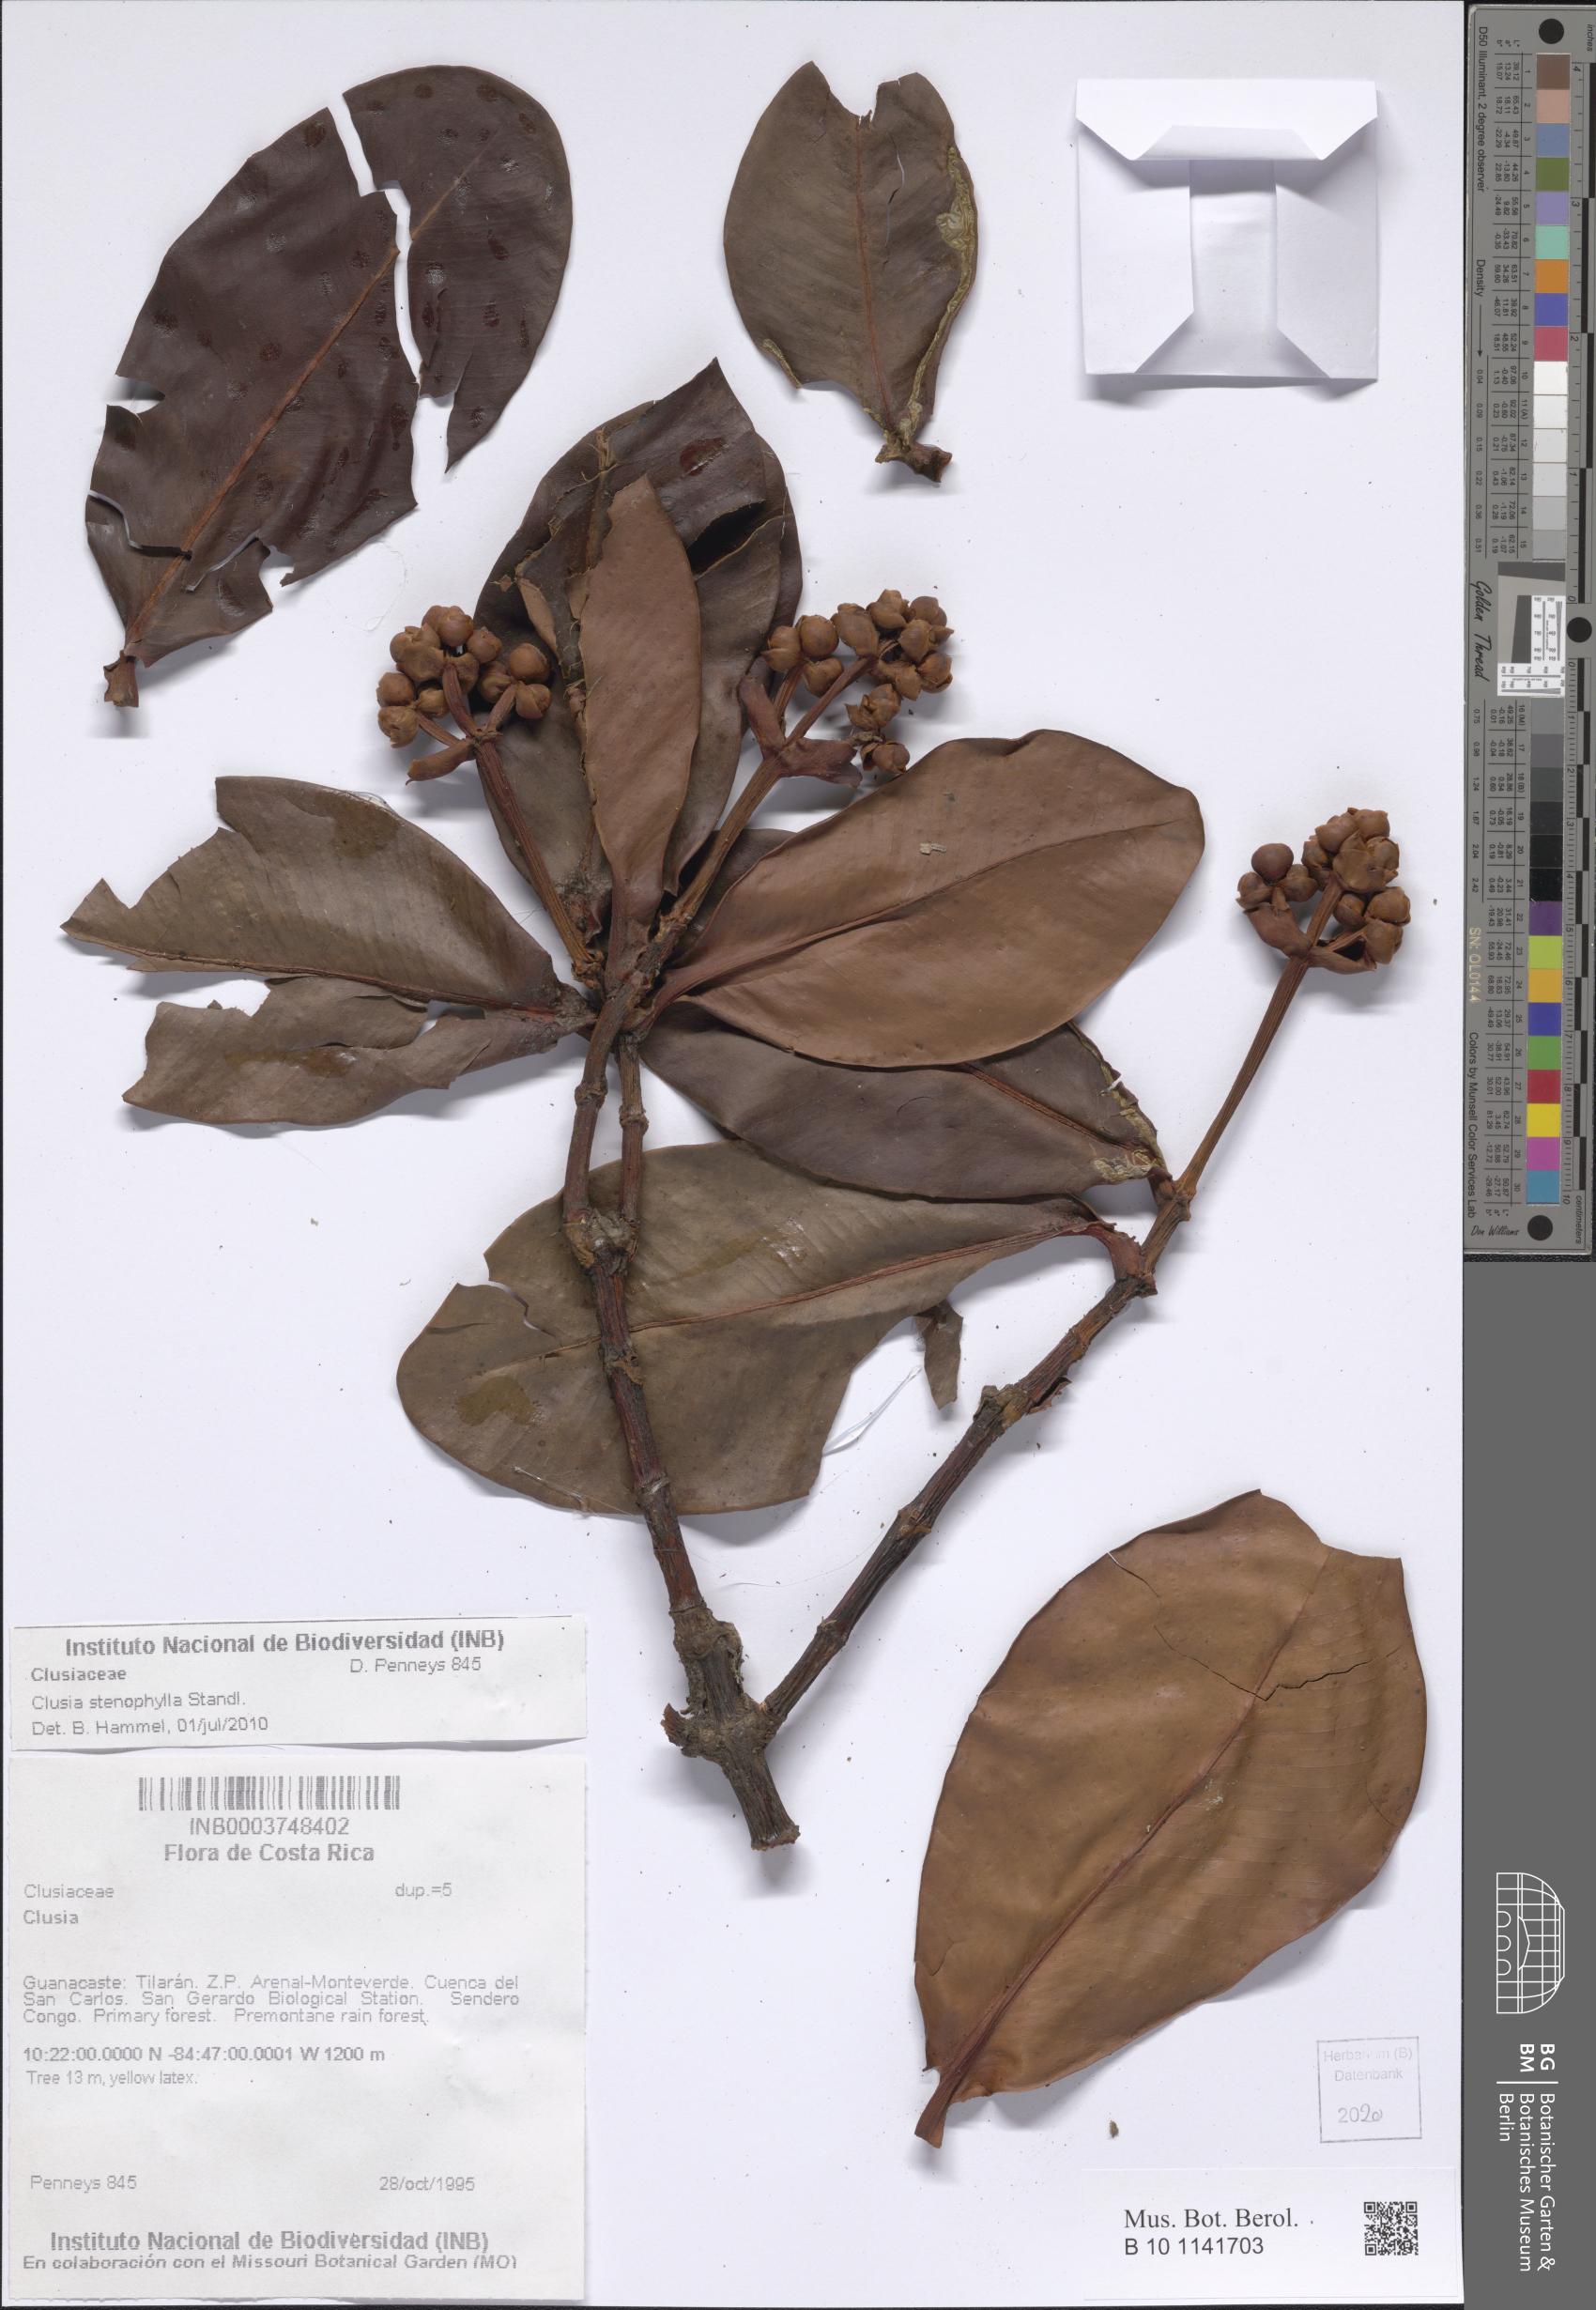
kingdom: Plantae
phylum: Tracheophyta
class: Magnoliopsida
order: Malpighiales
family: Clusiaceae
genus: Clusia
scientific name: Clusia stenophylla
